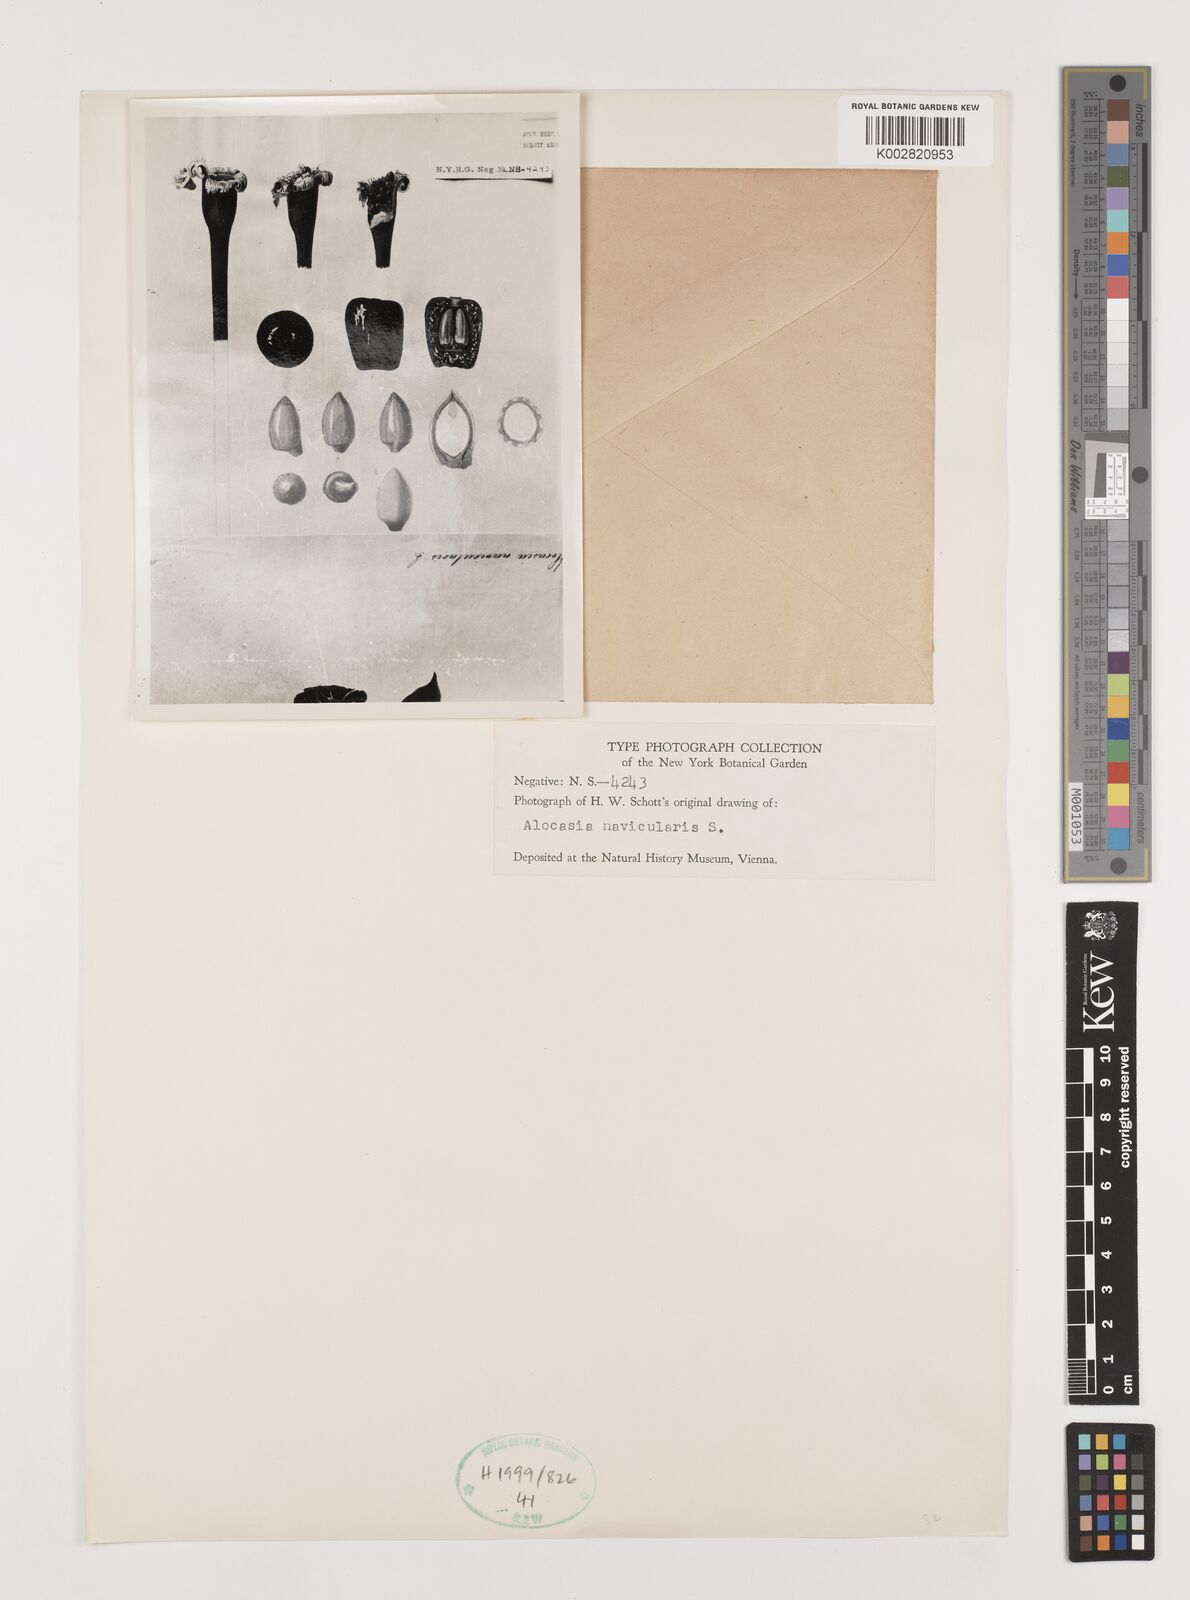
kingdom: Plantae
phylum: Tracheophyta
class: Liliopsida
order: Alismatales
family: Araceae
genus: Alocasia
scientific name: Alocasia navicularis
